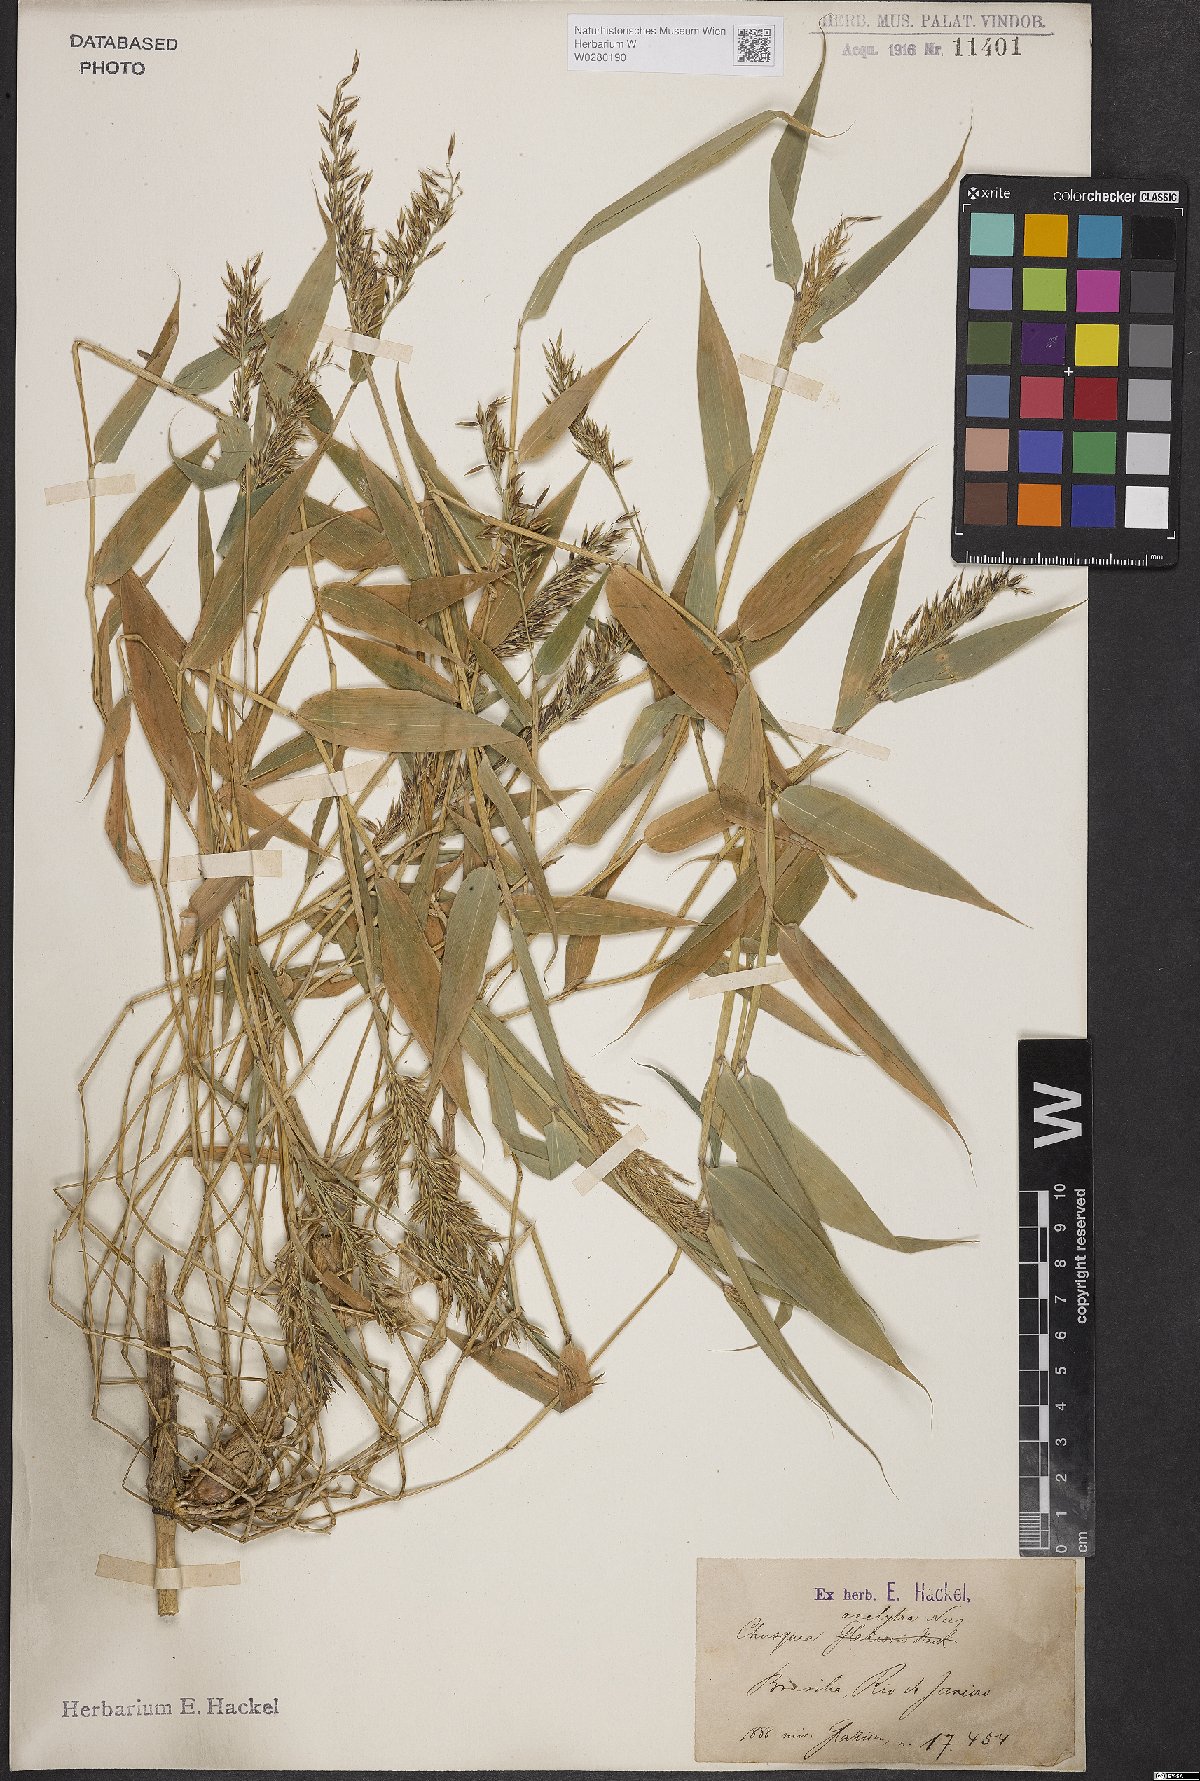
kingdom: Plantae
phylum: Tracheophyta
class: Liliopsida
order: Poales
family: Poaceae
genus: Chusquea
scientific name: Chusquea anelythra
